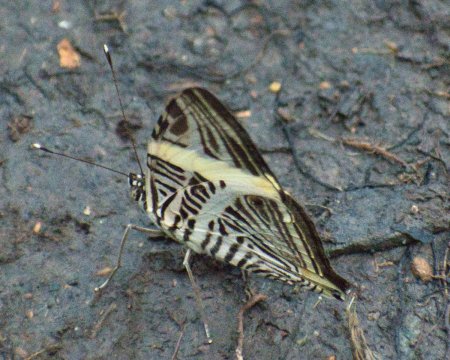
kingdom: Animalia
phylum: Arthropoda
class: Insecta
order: Lepidoptera
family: Nymphalidae
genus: Colobura
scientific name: Colobura dirce
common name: Dirce Beauty
